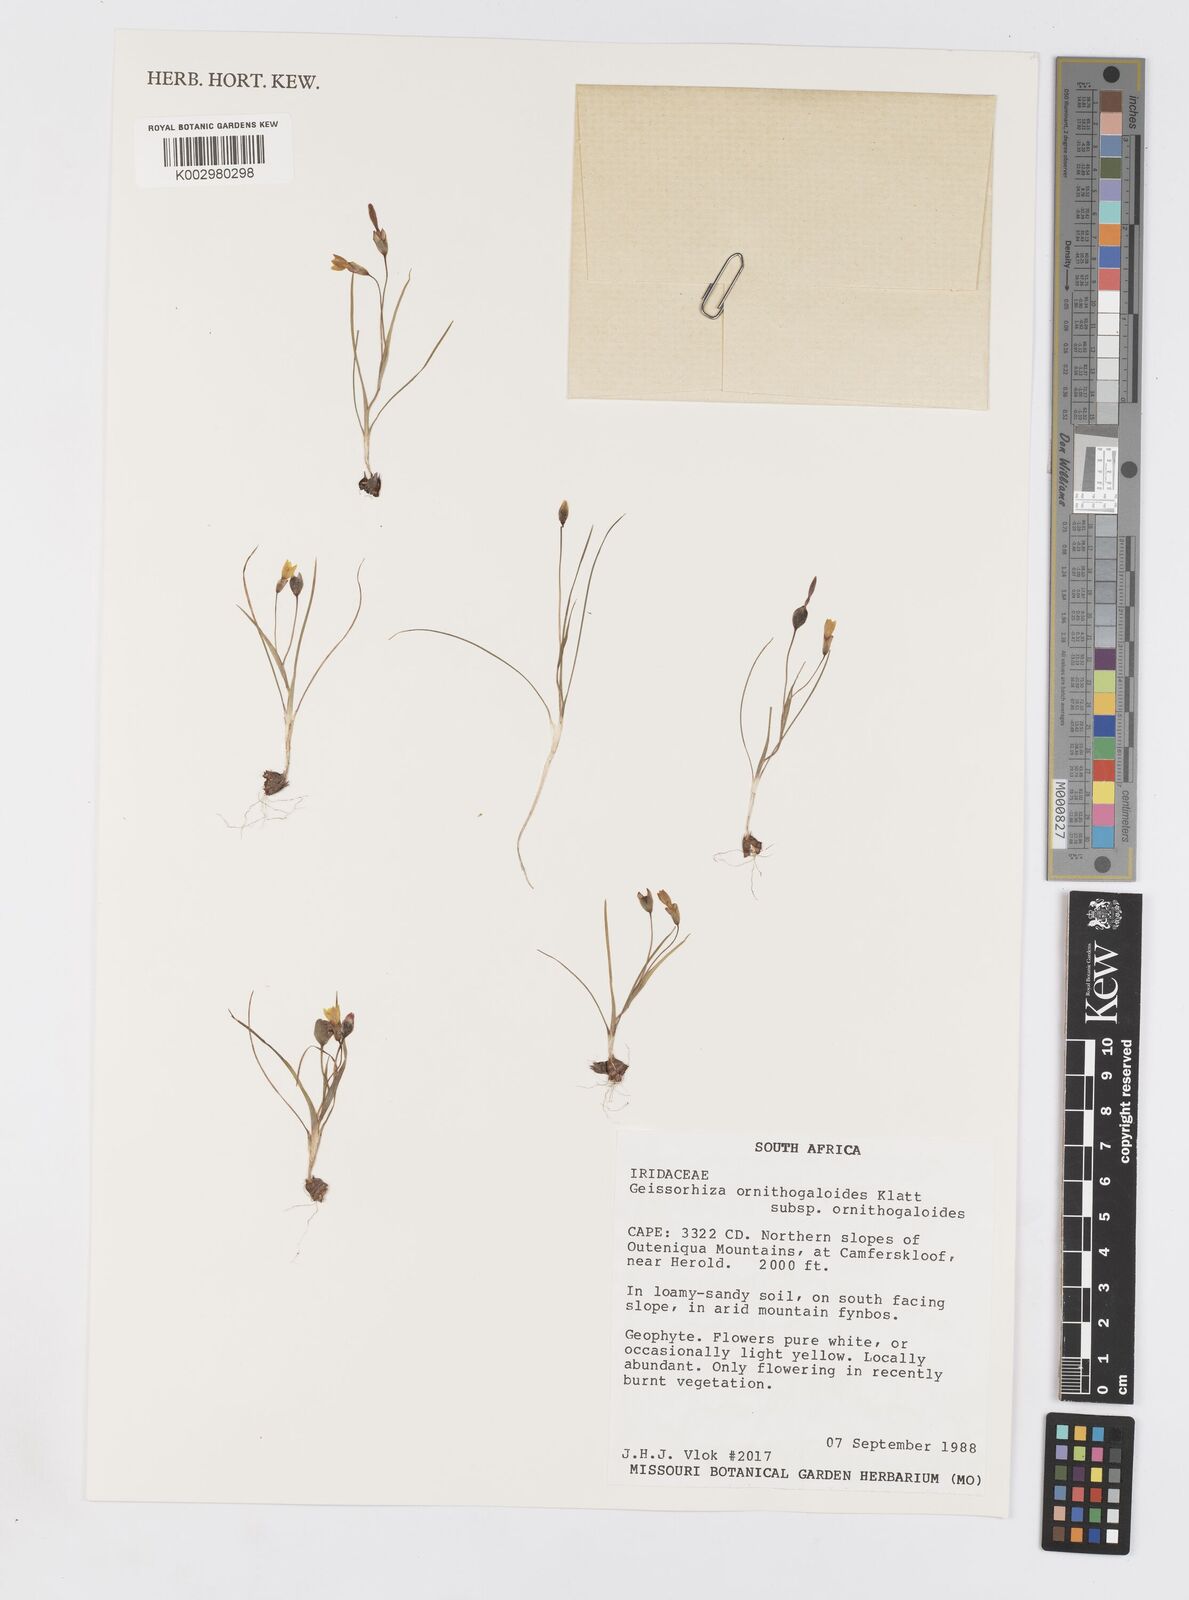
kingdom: Plantae
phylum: Tracheophyta
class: Liliopsida
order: Asparagales
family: Iridaceae
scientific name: Iridaceae
